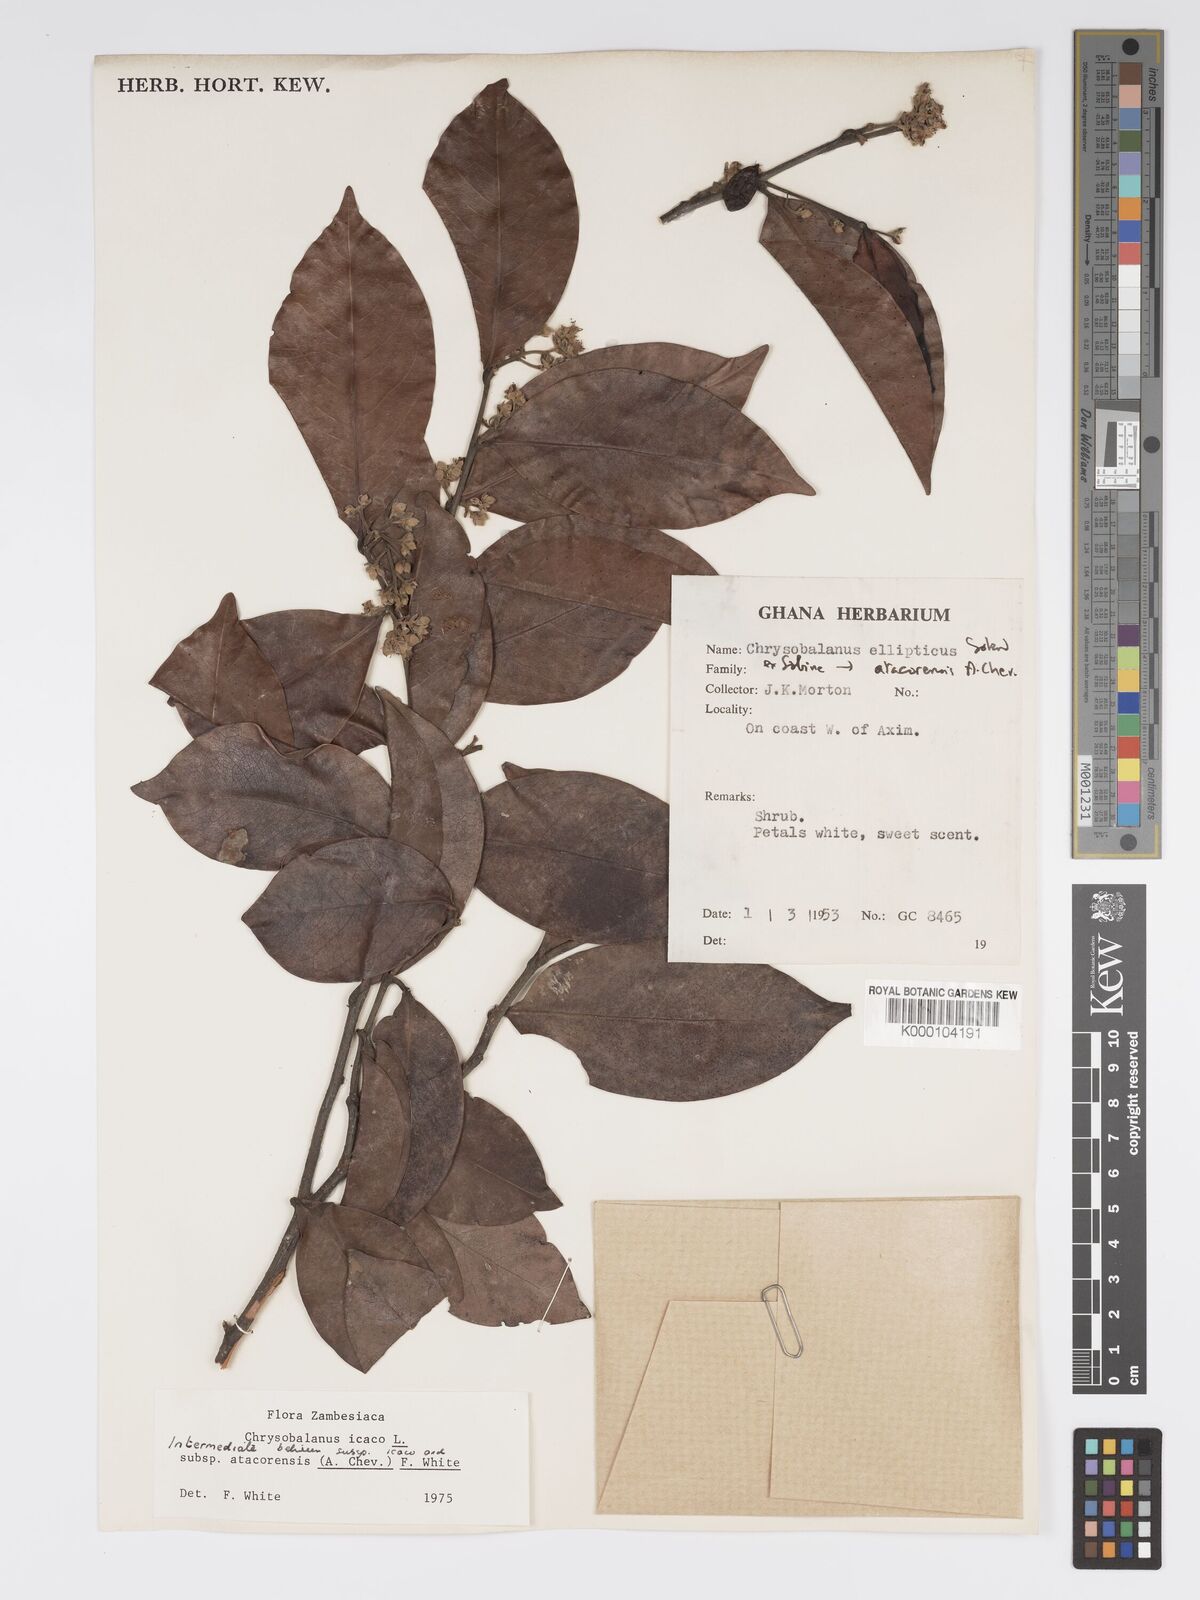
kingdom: Plantae
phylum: Tracheophyta
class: Magnoliopsida
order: Malpighiales
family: Chrysobalanaceae
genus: Chrysobalanus
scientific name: Chrysobalanus icaco
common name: Coco plum
